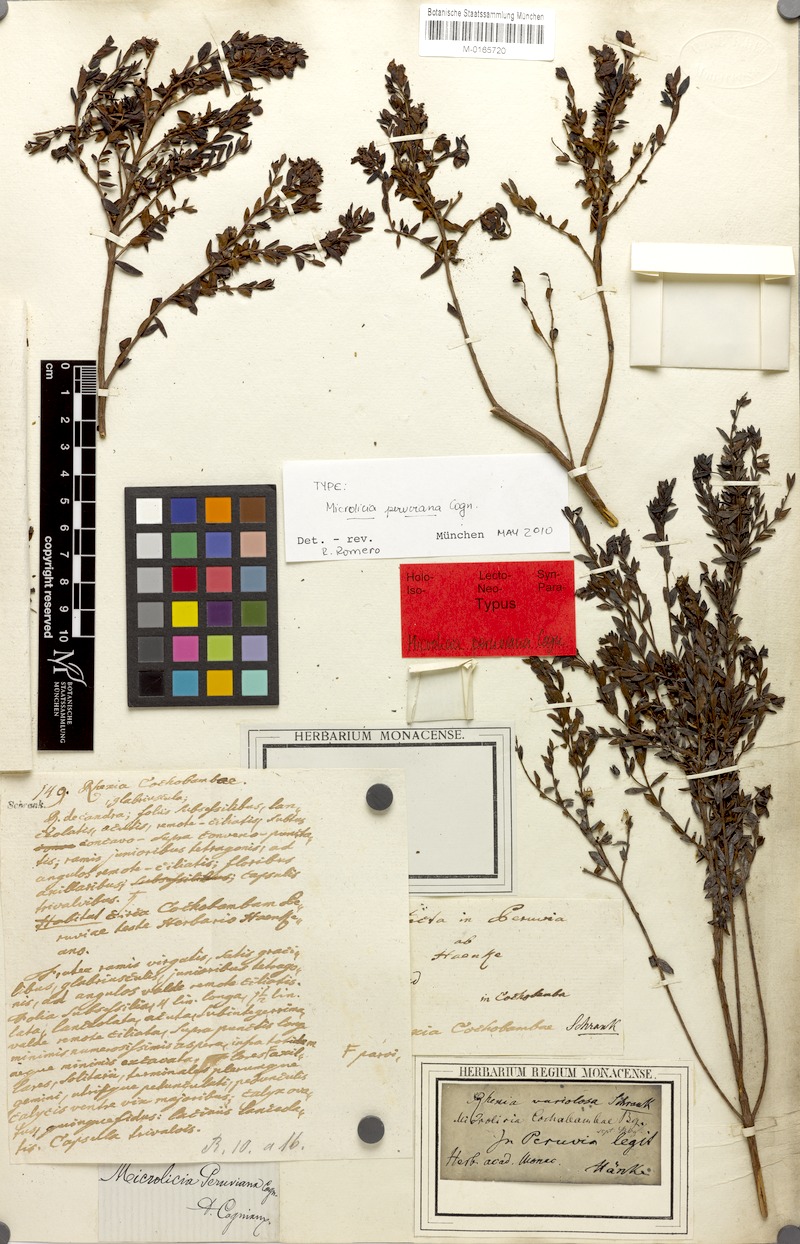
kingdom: Plantae
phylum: Tracheophyta
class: Magnoliopsida
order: Myrtales
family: Melastomataceae
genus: Microlicia
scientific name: Microlicia variolosa
